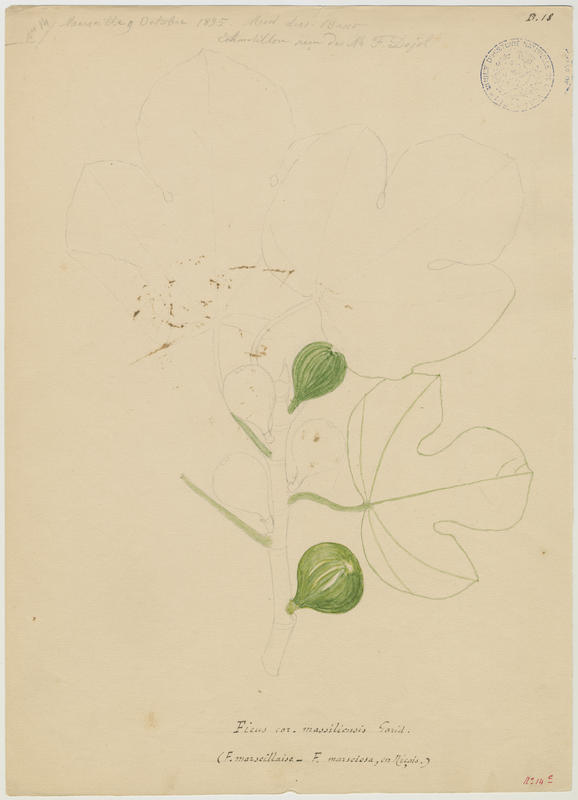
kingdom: Plantae
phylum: Tracheophyta
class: Magnoliopsida
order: Rosales
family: Moraceae
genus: Ficus
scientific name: Ficus carica
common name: Fig
